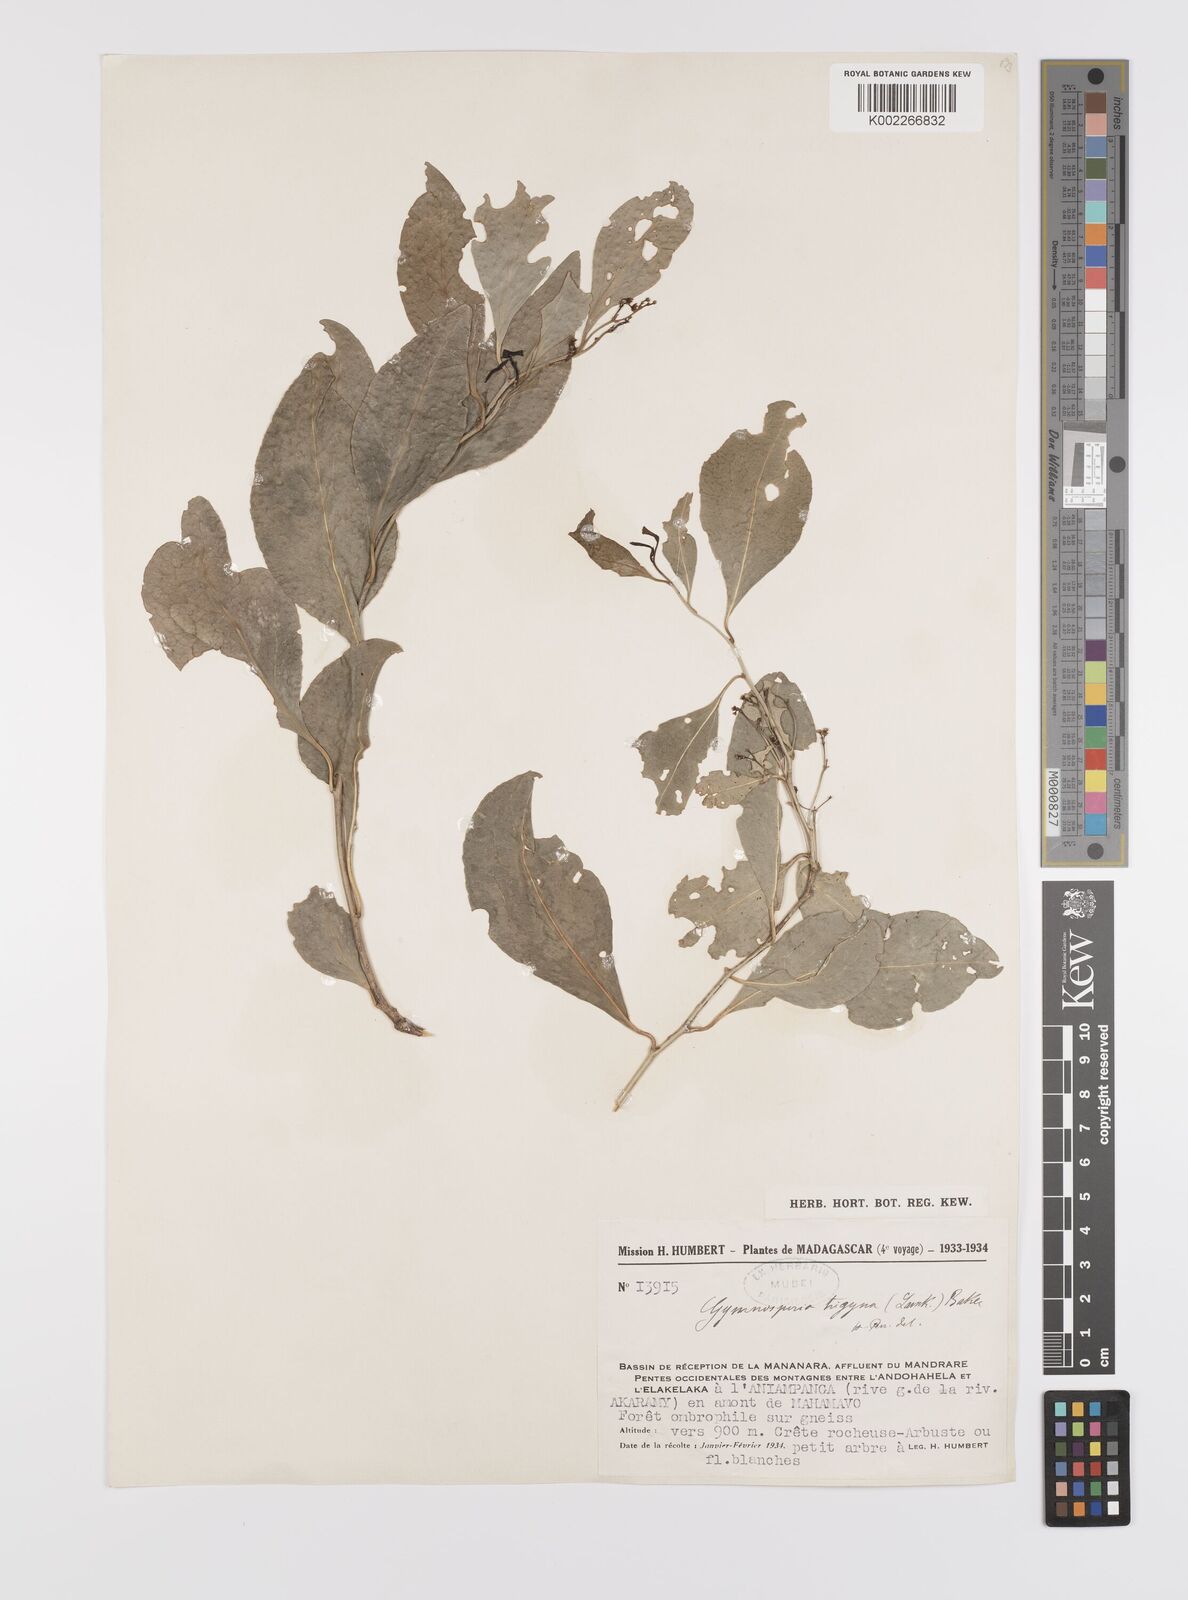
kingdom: Plantae
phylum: Tracheophyta
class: Magnoliopsida
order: Celastrales
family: Celastraceae
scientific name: Celastraceae
